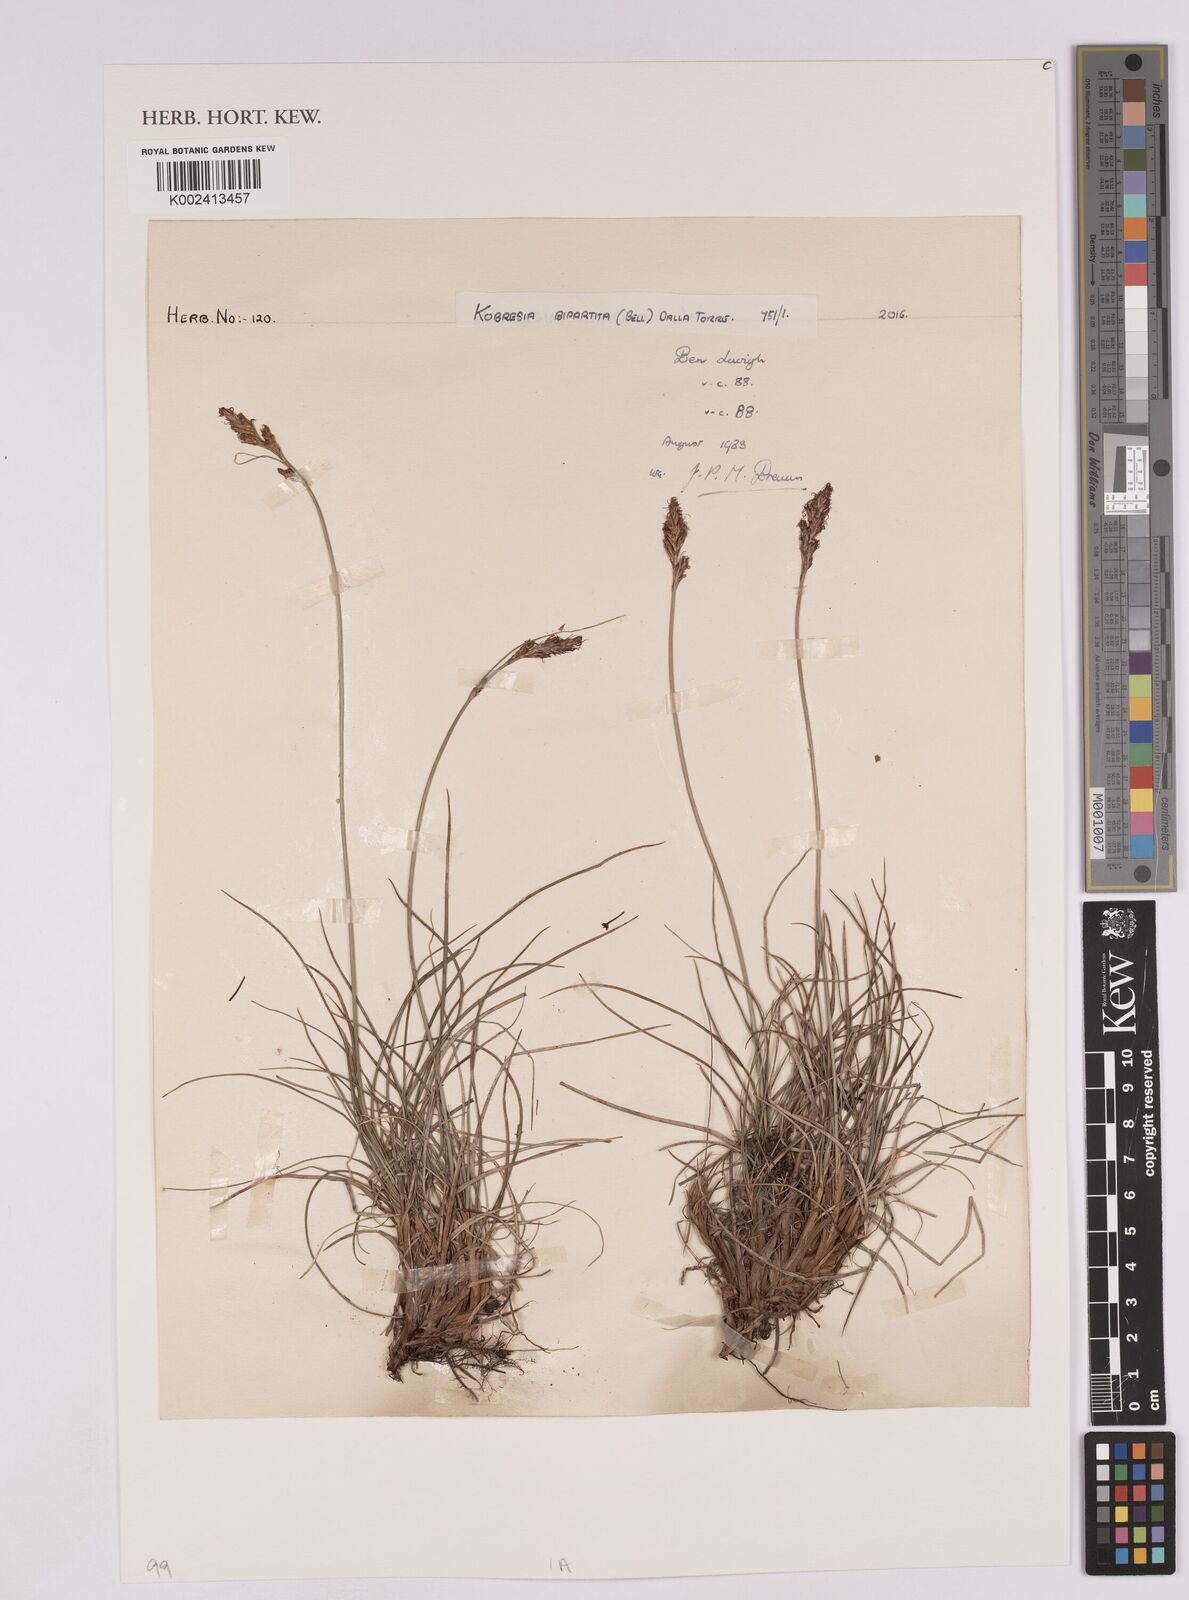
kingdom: Plantae
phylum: Tracheophyta
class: Liliopsida
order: Poales
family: Cyperaceae
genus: Carex
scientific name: Carex simpliciuscula
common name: Simple bog sedge
